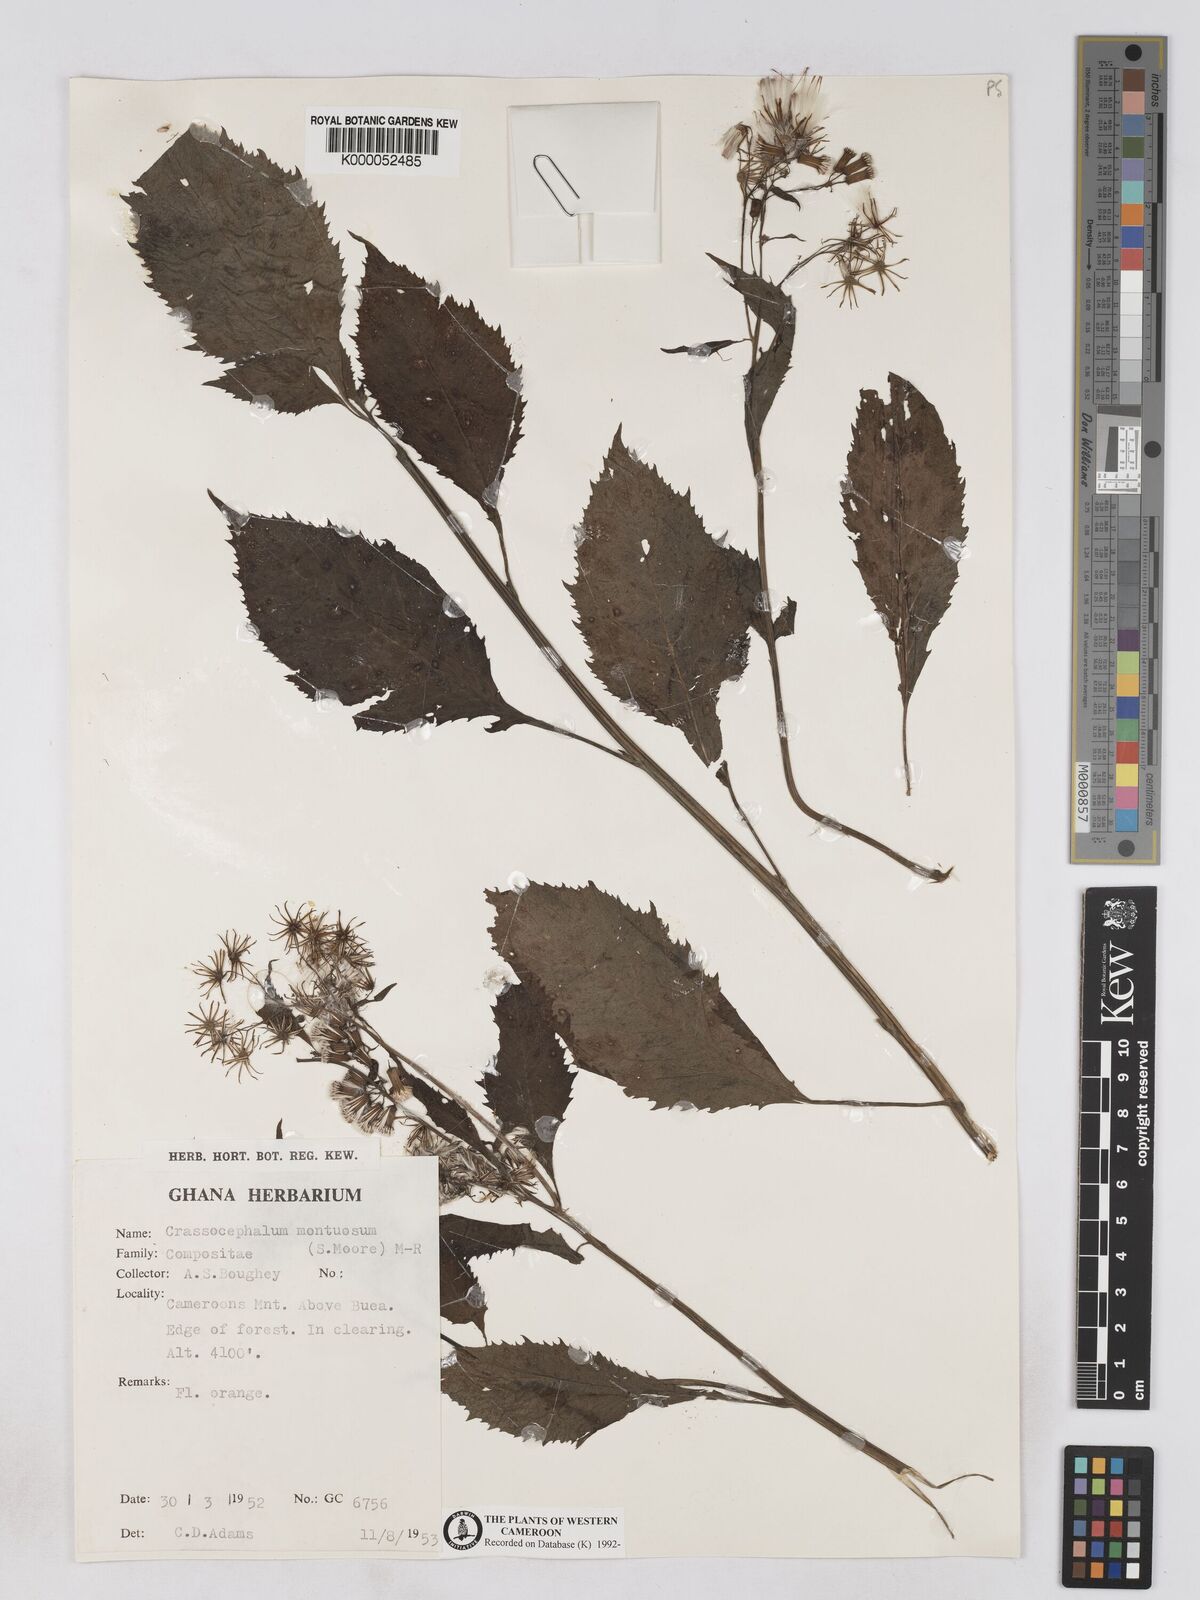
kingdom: Plantae
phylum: Tracheophyta
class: Magnoliopsida
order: Asterales
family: Asteraceae
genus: Crassocephalum
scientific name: Crassocephalum montuosum
